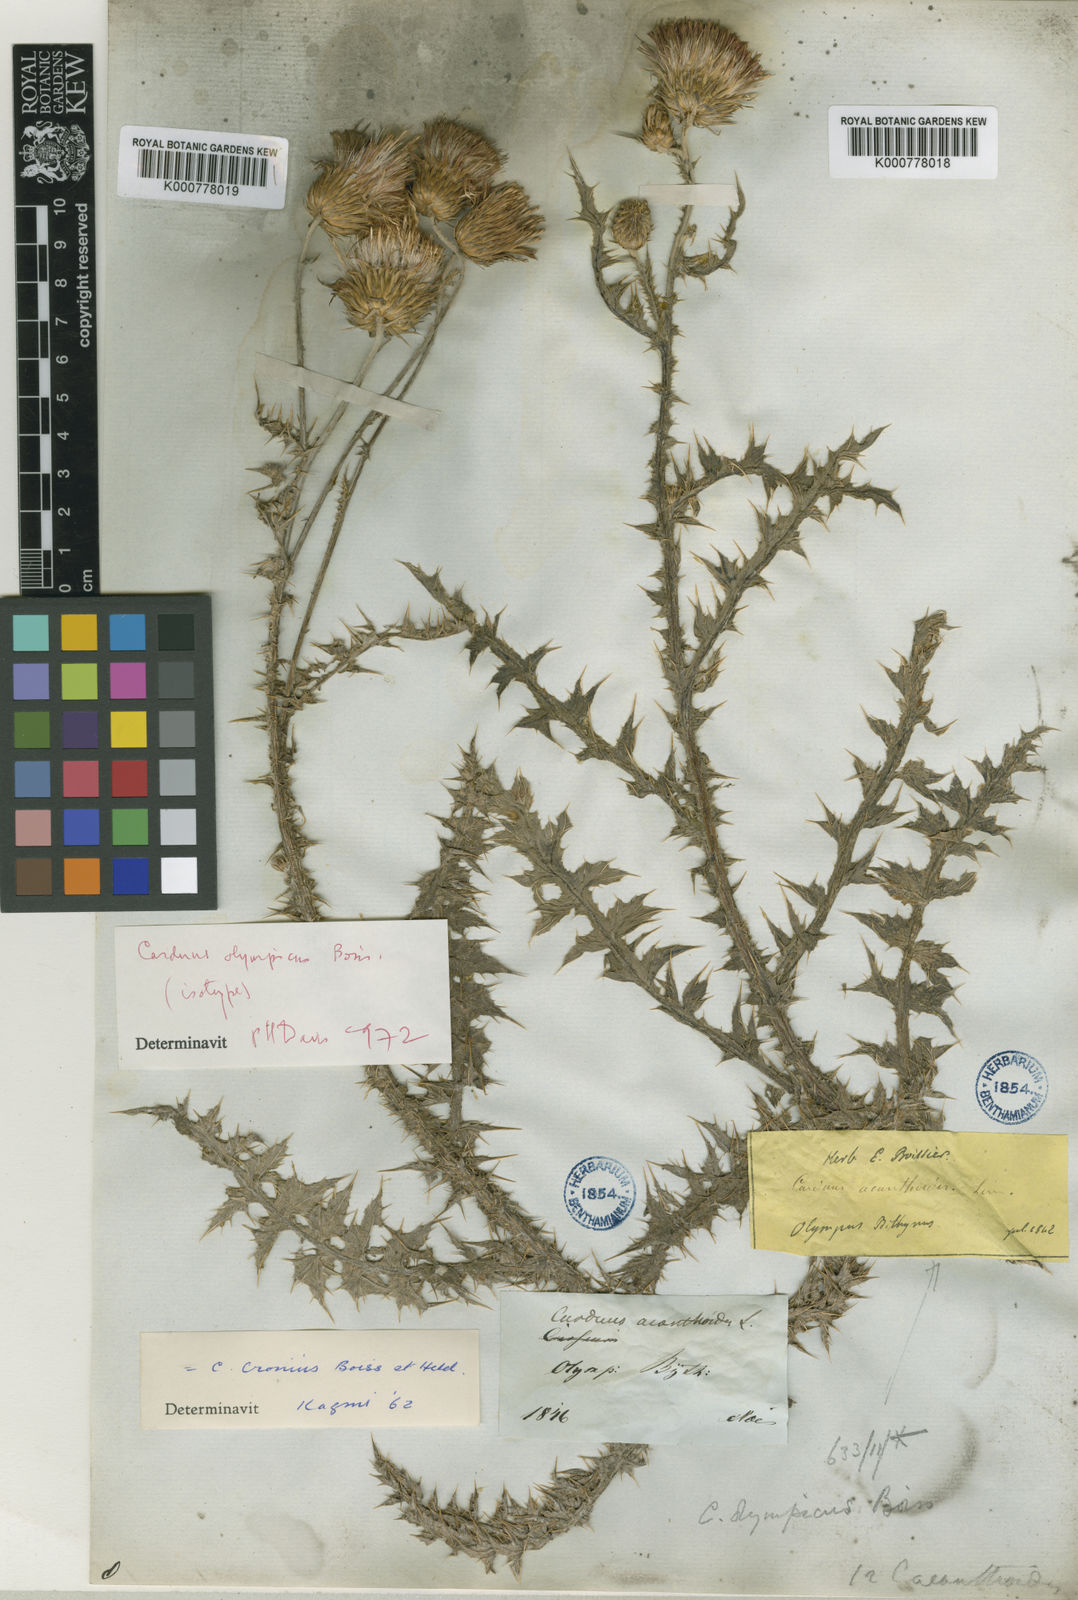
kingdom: Plantae
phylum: Tracheophyta
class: Magnoliopsida
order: Asterales
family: Asteraceae
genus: Carduus
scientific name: Carduus olympicus
